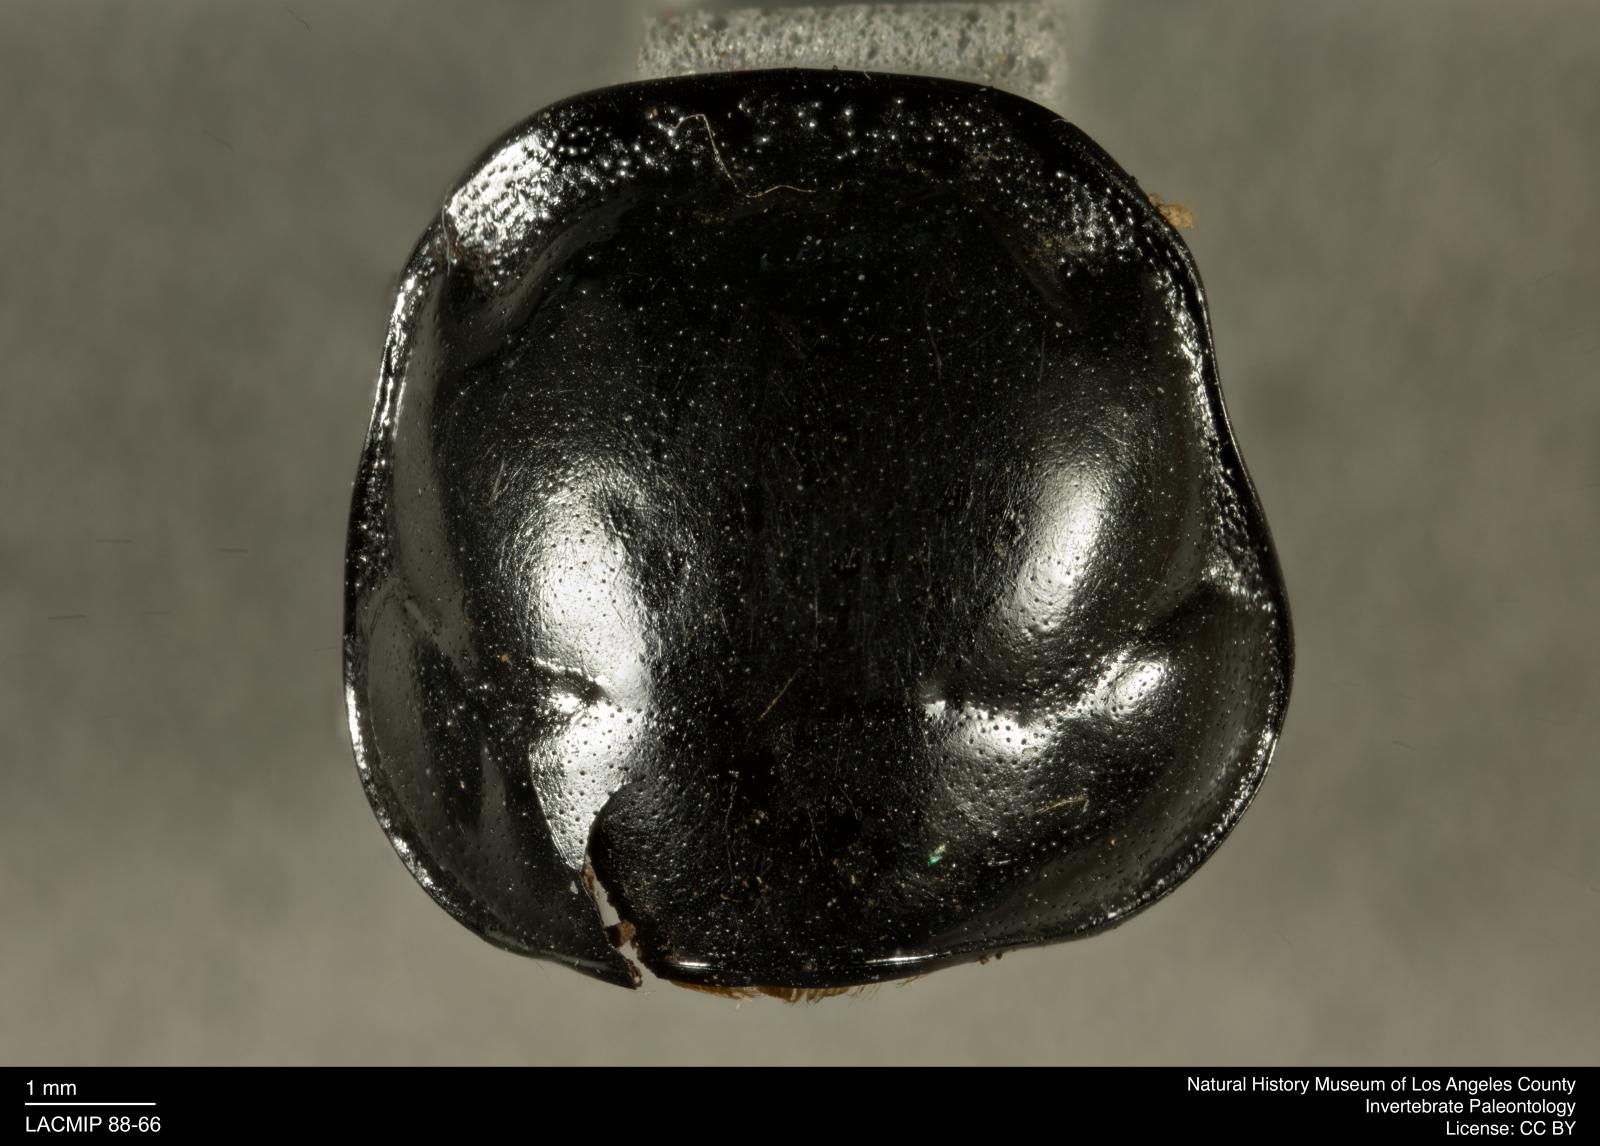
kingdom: Animalia
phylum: Arthropoda
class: Insecta
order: Coleoptera
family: Staphylinidae
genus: Nicrophorus
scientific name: Nicrophorus marginatus
